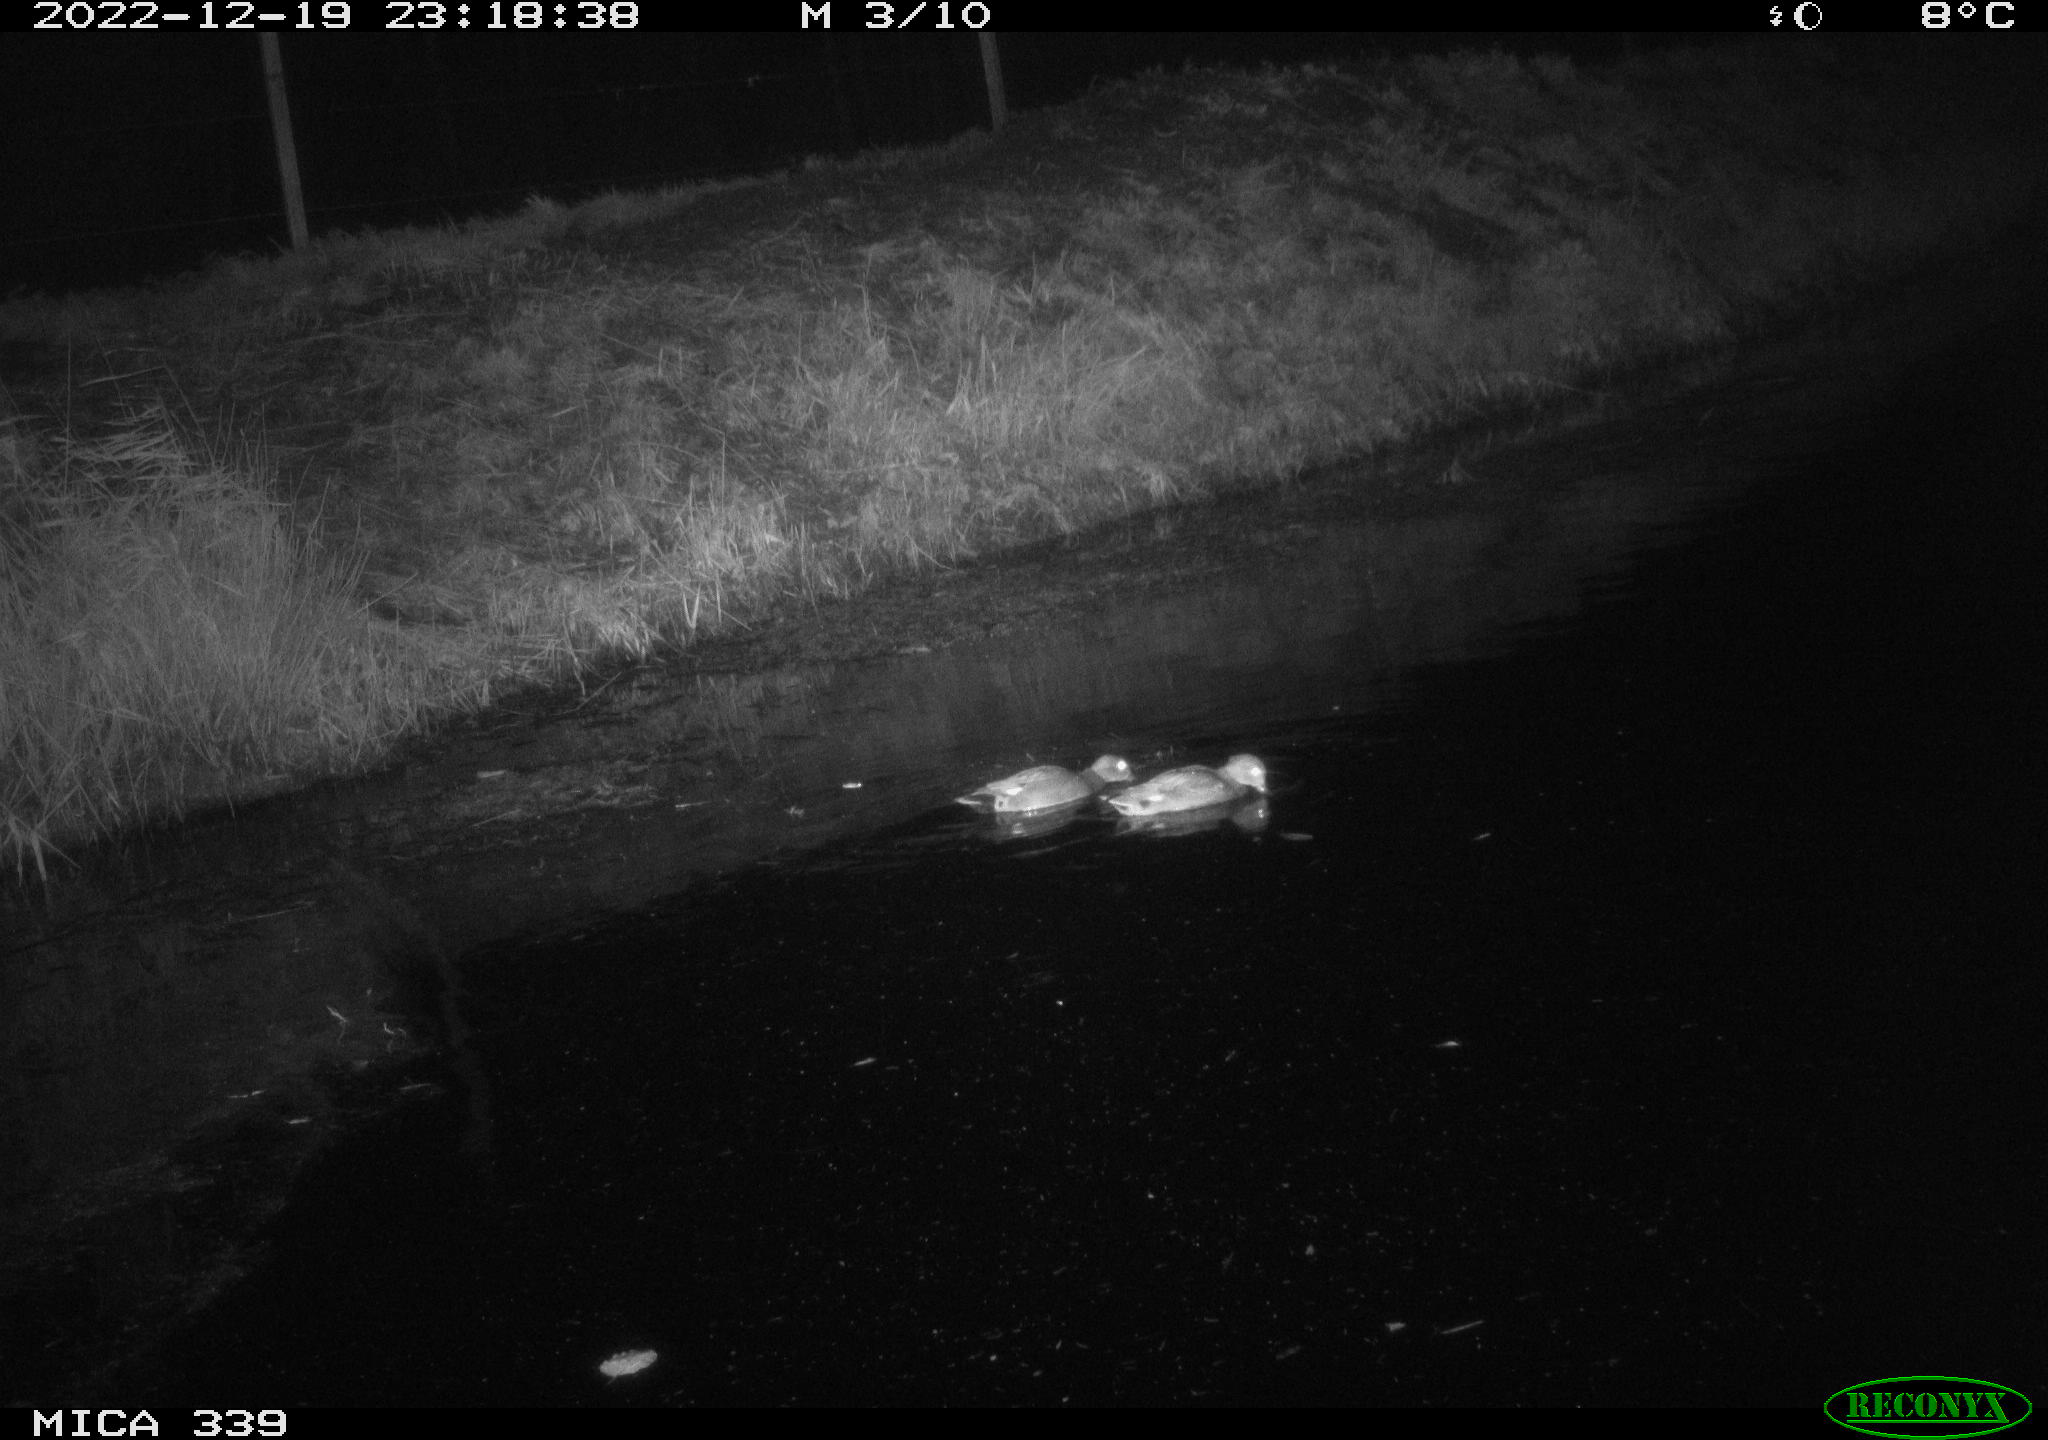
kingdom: Animalia
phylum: Chordata
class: Aves
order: Anseriformes
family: Anatidae
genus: Anas
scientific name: Anas
